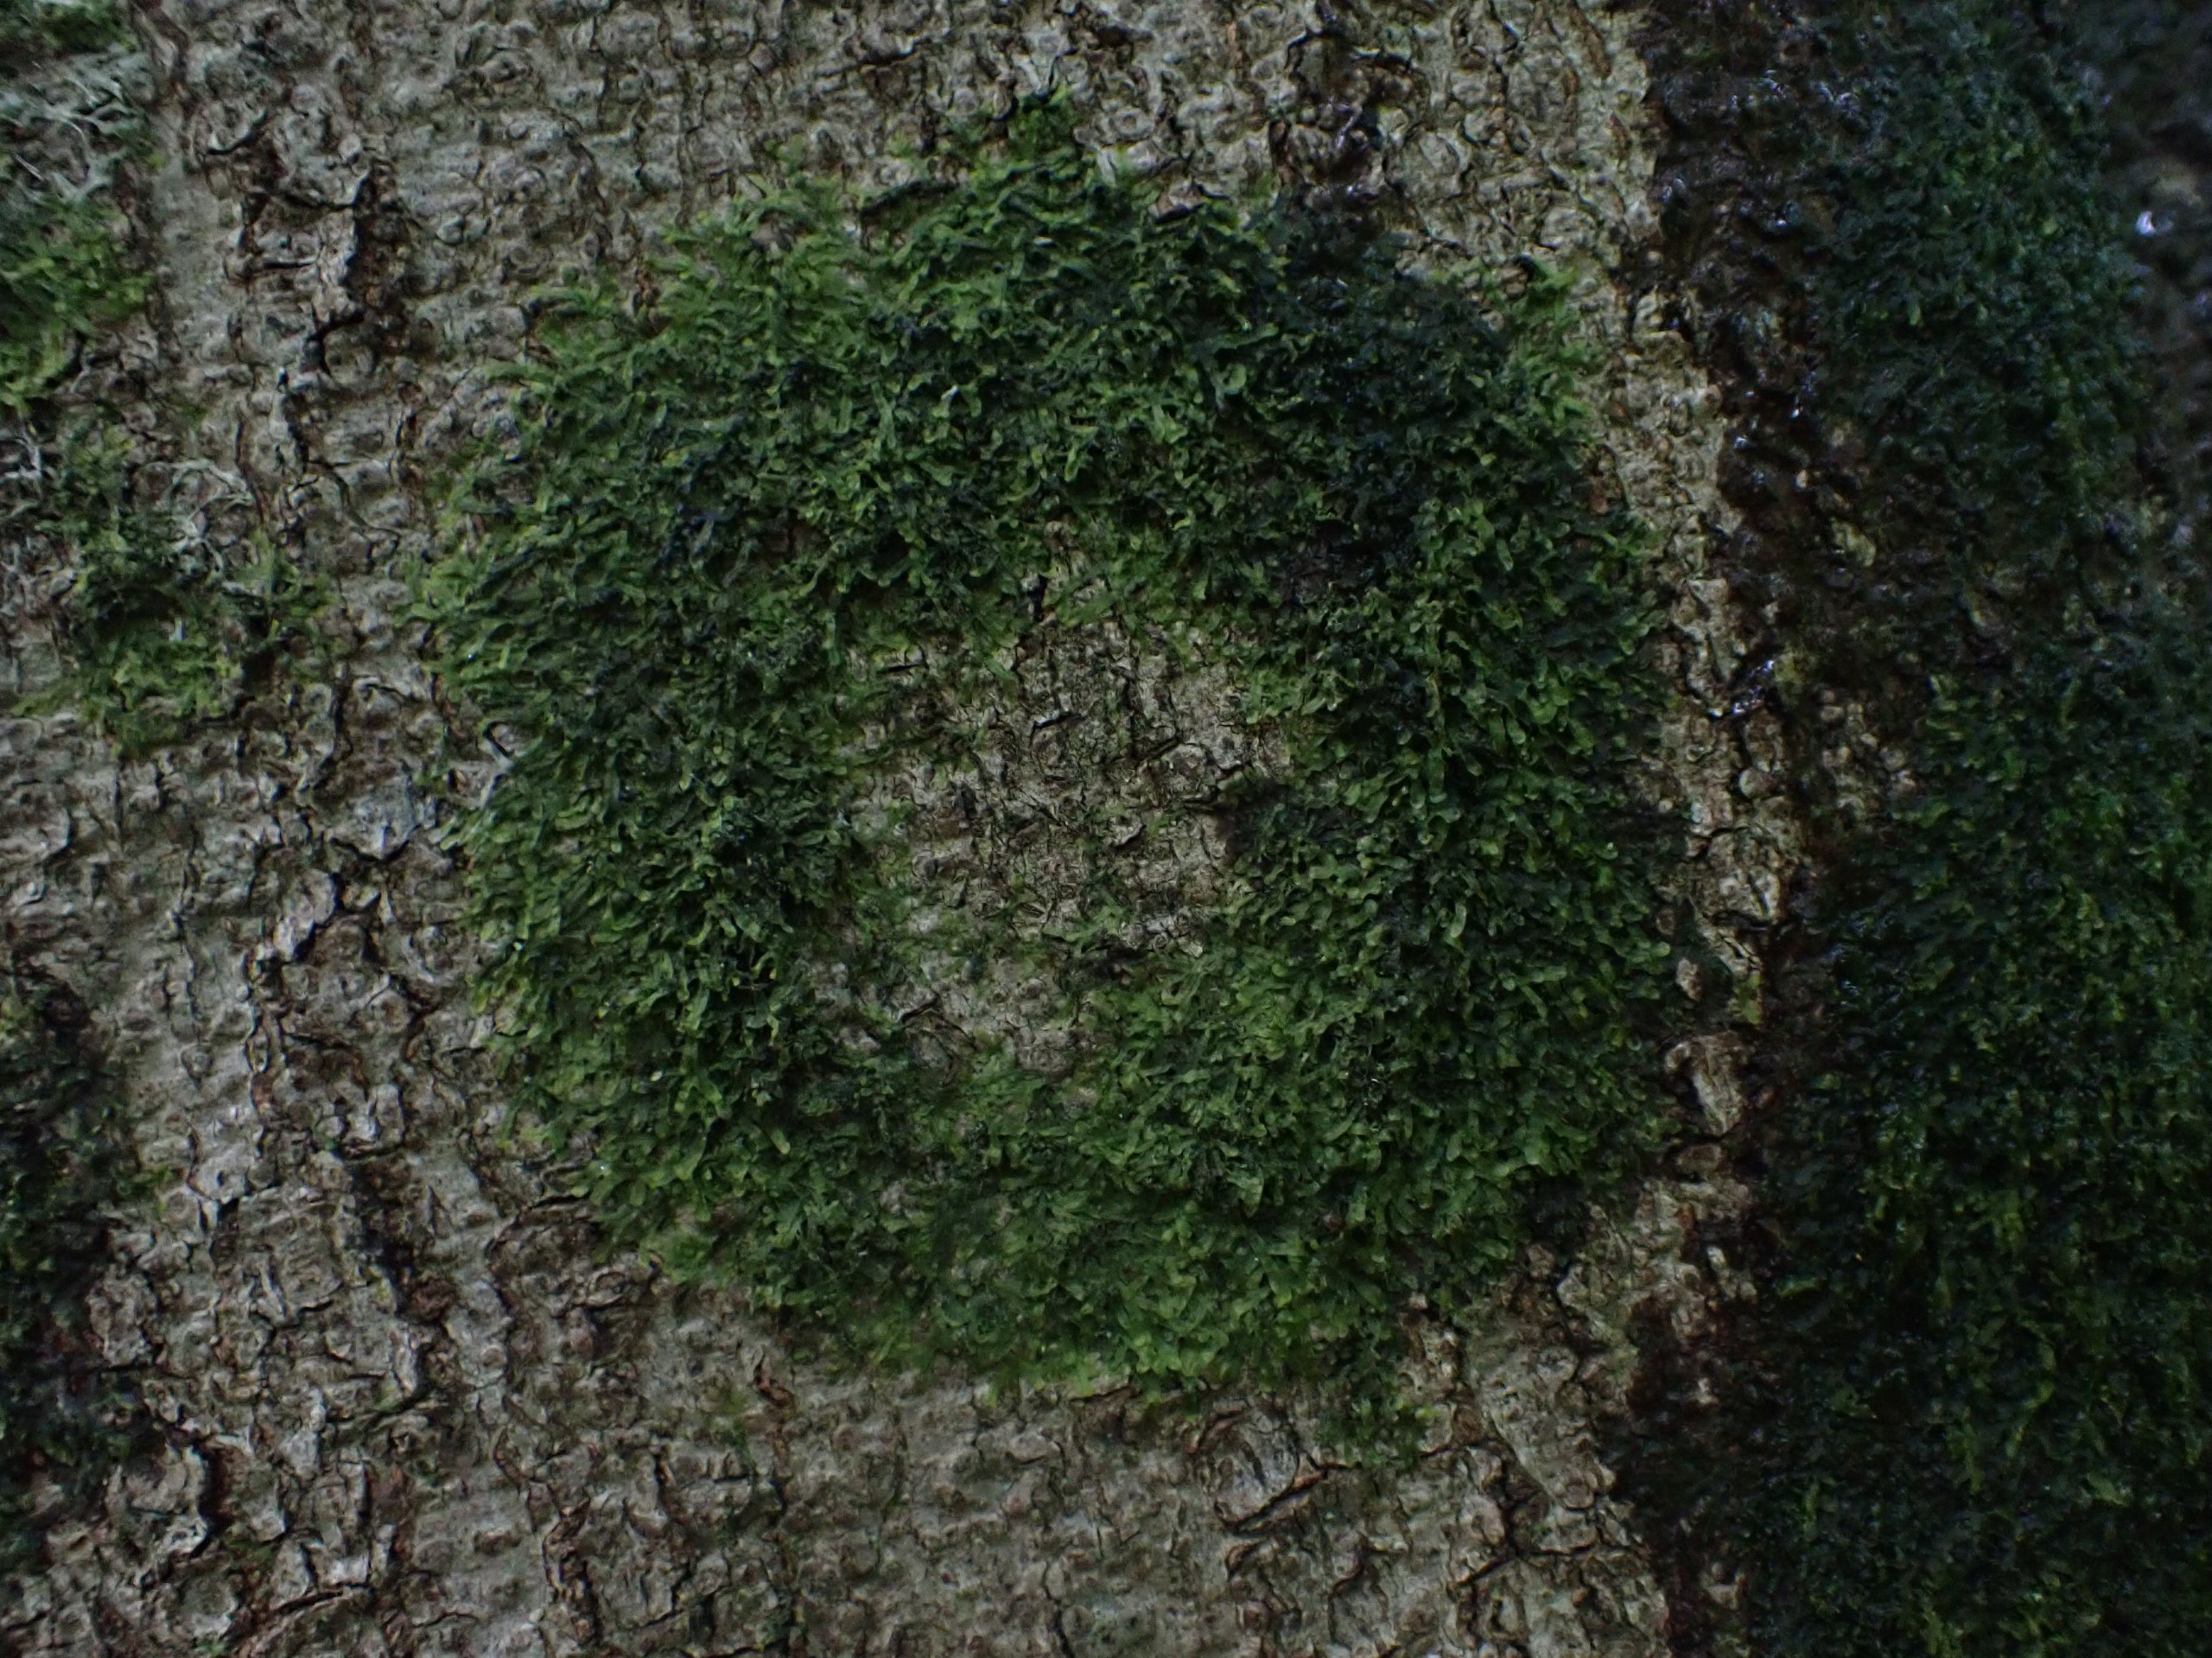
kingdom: Plantae
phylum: Marchantiophyta
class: Jungermanniopsida
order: Metzgeriales
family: Metzgeriaceae
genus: Metzgeria
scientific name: Metzgeria furcata
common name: Almindelig gaffelløv
